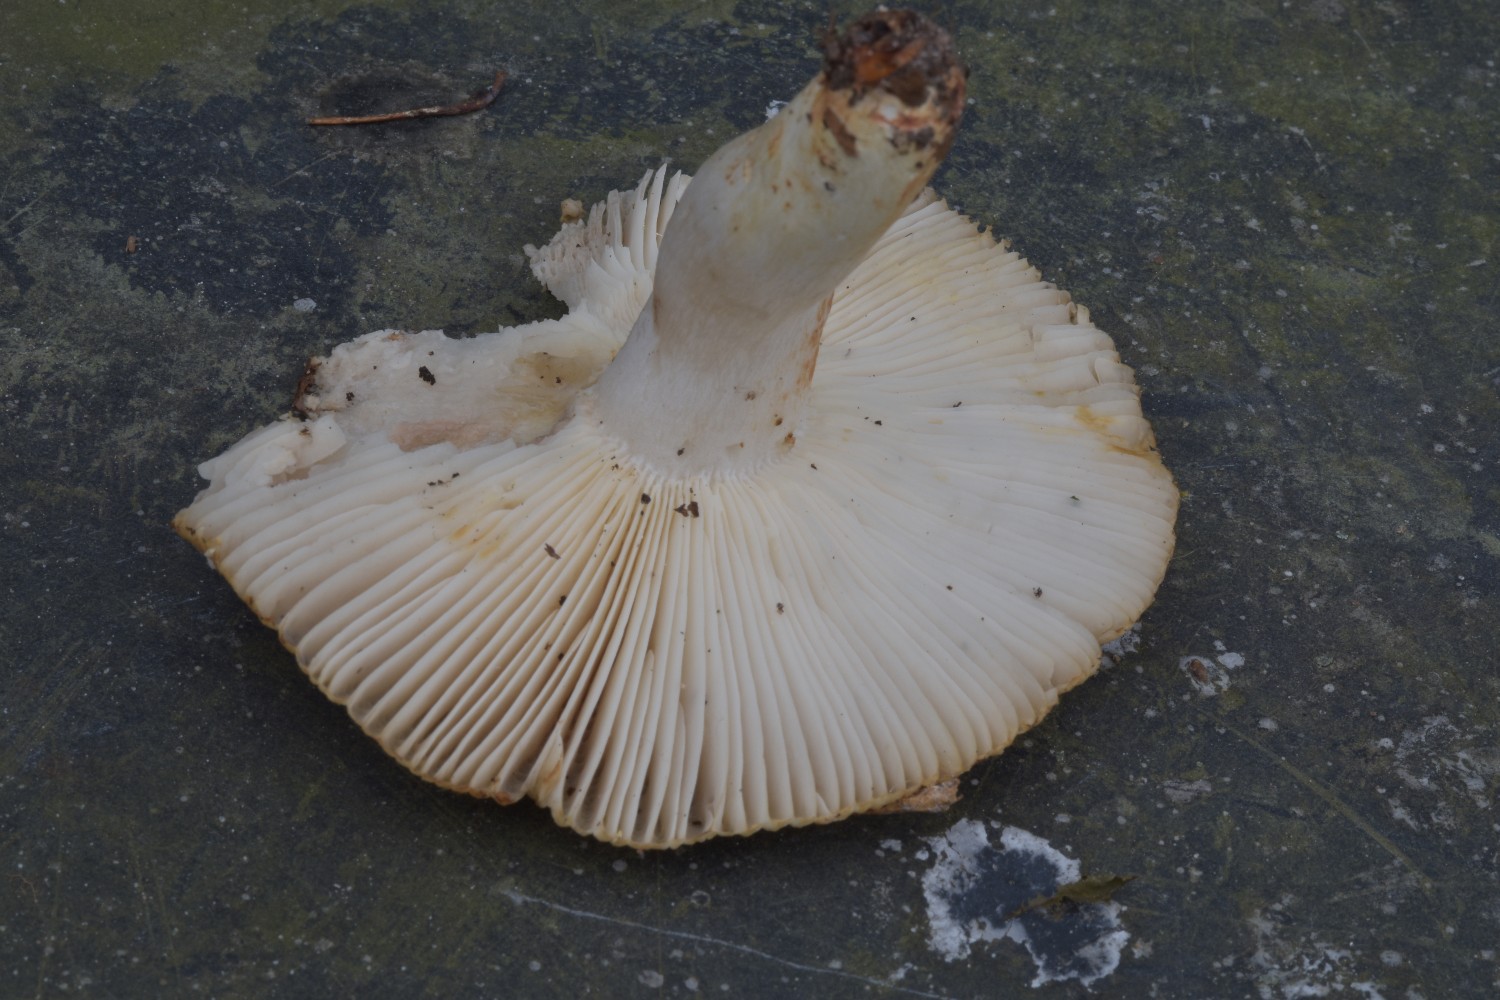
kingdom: Fungi
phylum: Basidiomycota
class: Agaricomycetes
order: Russulales
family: Russulaceae
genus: Russula
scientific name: Russula amoenolens
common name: skarp kam-skørhat
